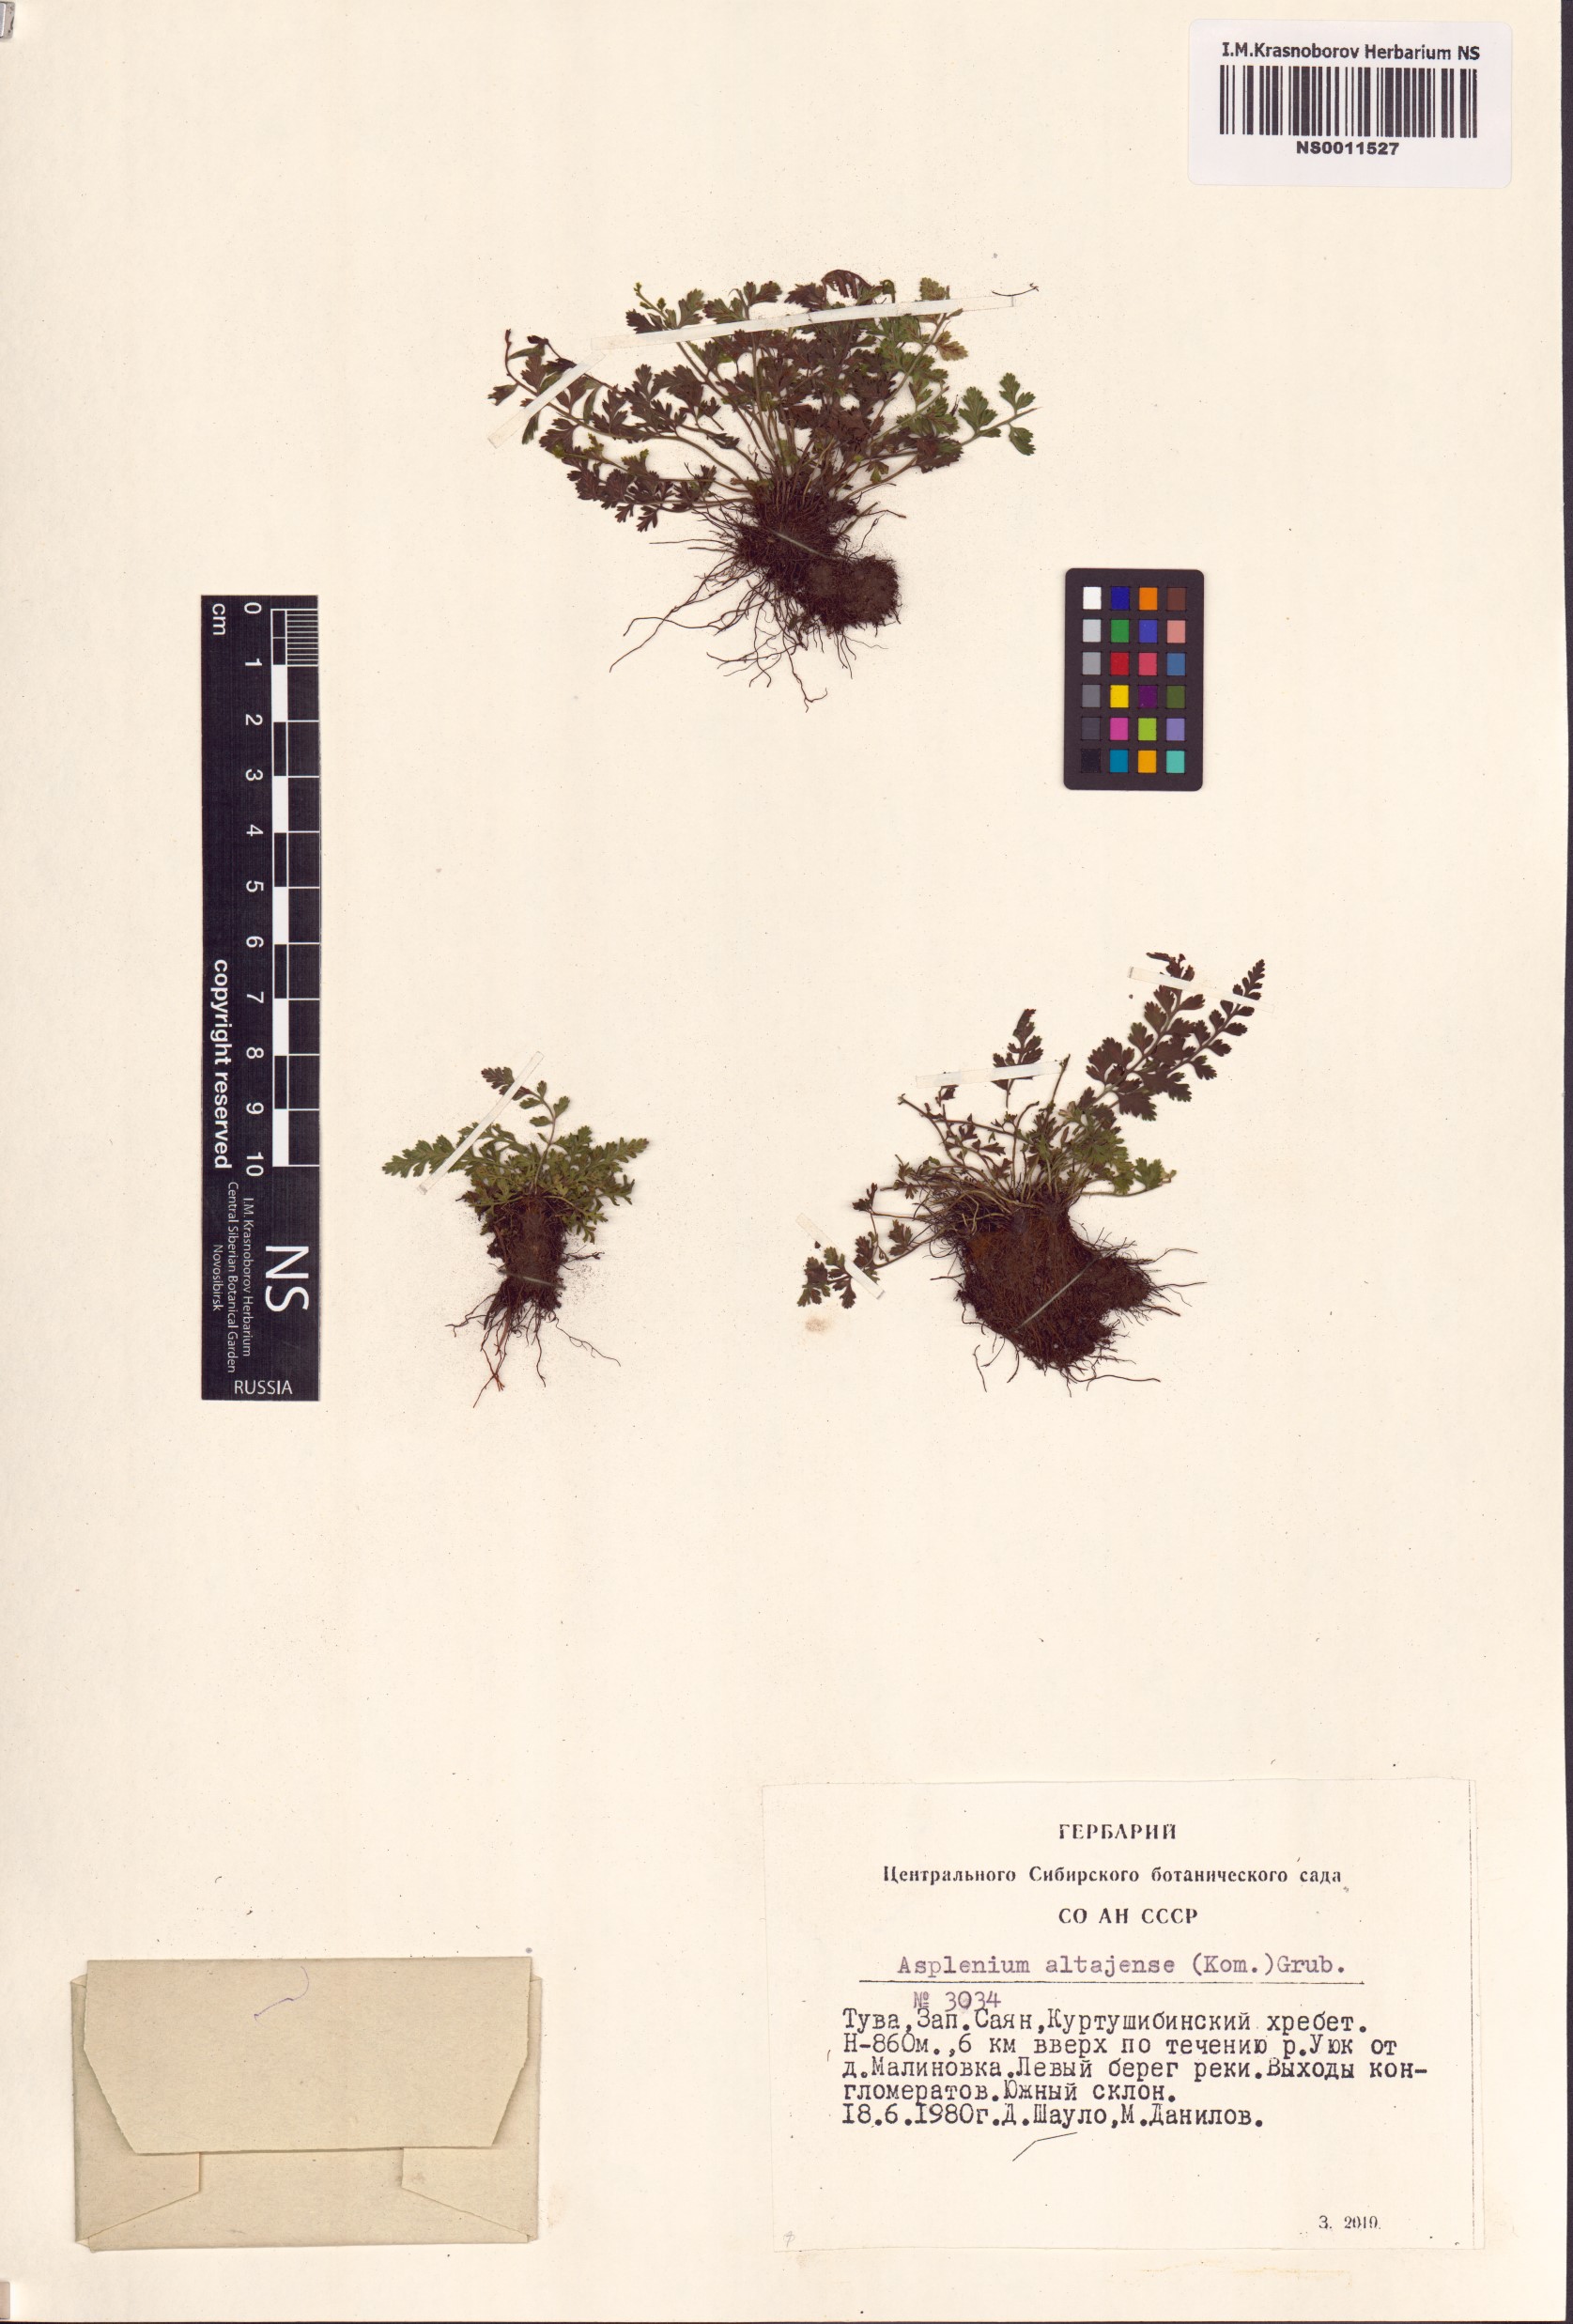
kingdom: Plantae
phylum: Tracheophyta
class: Polypodiopsida
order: Polypodiales
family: Aspleniaceae
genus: Asplenium
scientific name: Asplenium altajense
